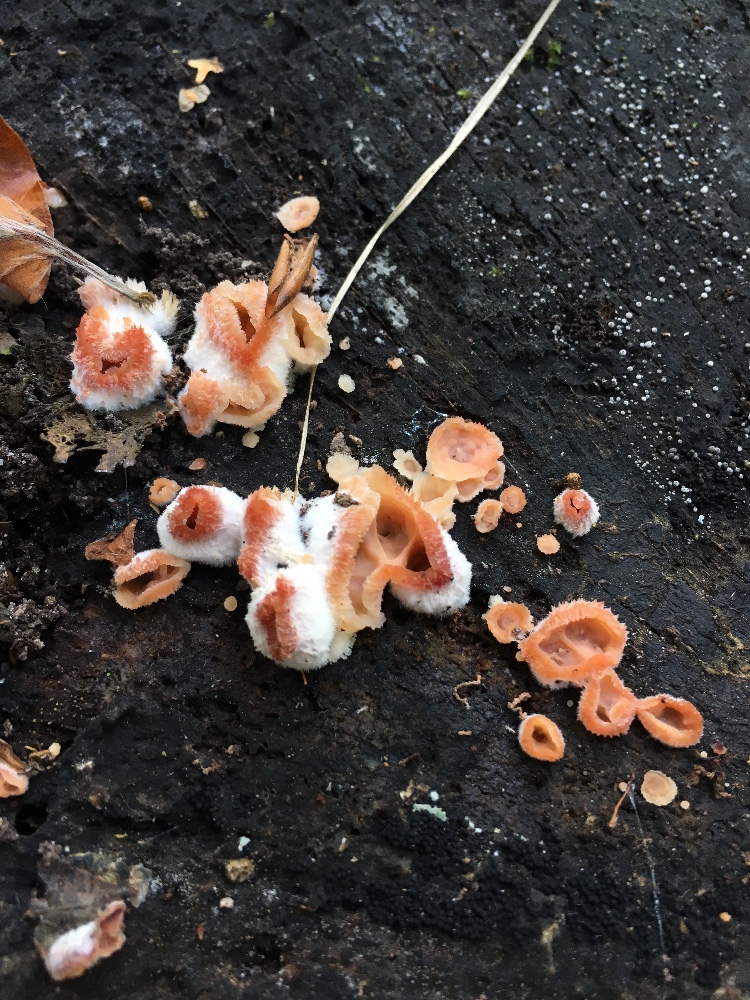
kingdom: Fungi
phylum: Basidiomycota
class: Agaricomycetes
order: Polyporales
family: Meruliaceae
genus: Phlebia
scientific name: Phlebia tremellosa
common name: bævrende åresvamp
